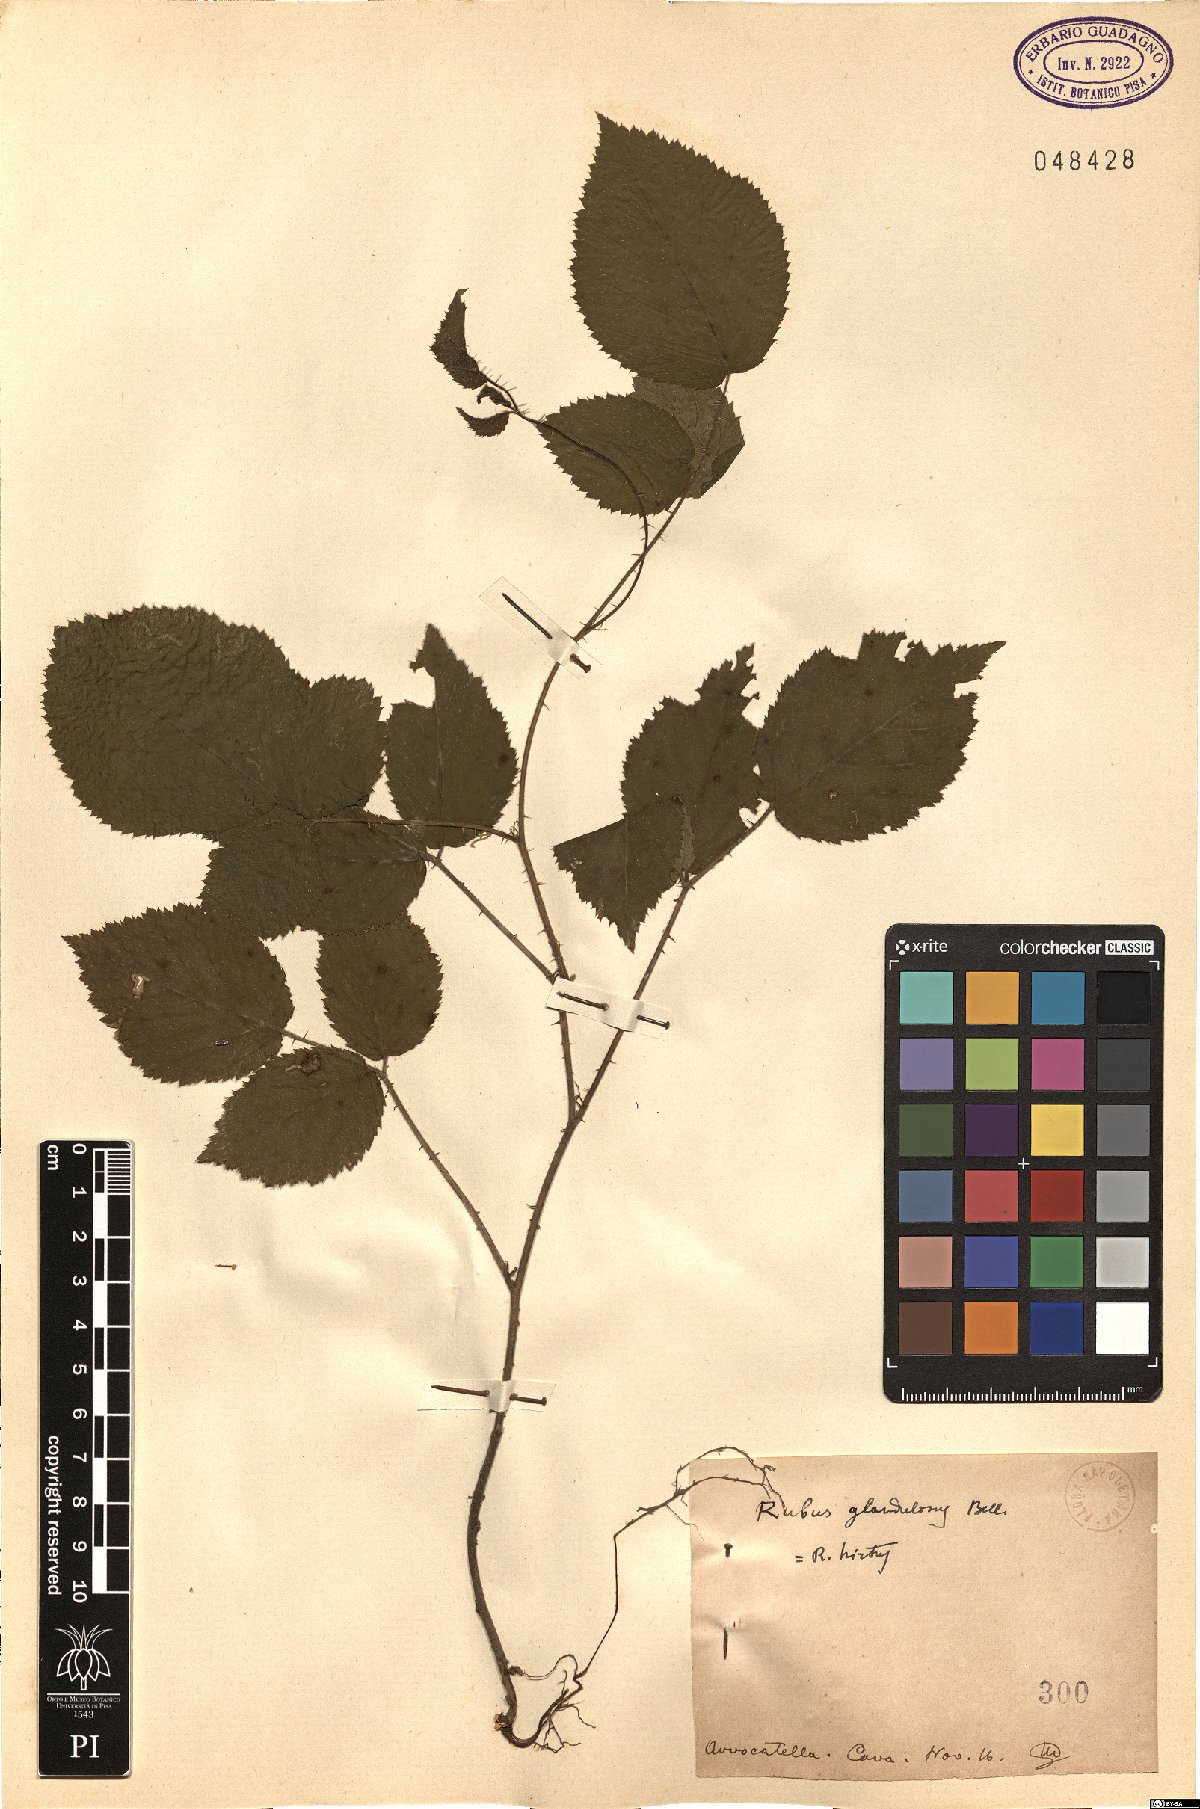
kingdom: Plantae
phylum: Tracheophyta
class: Magnoliopsida
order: Rosales
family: Rosaceae
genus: Rubus
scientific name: Rubus hirtus
